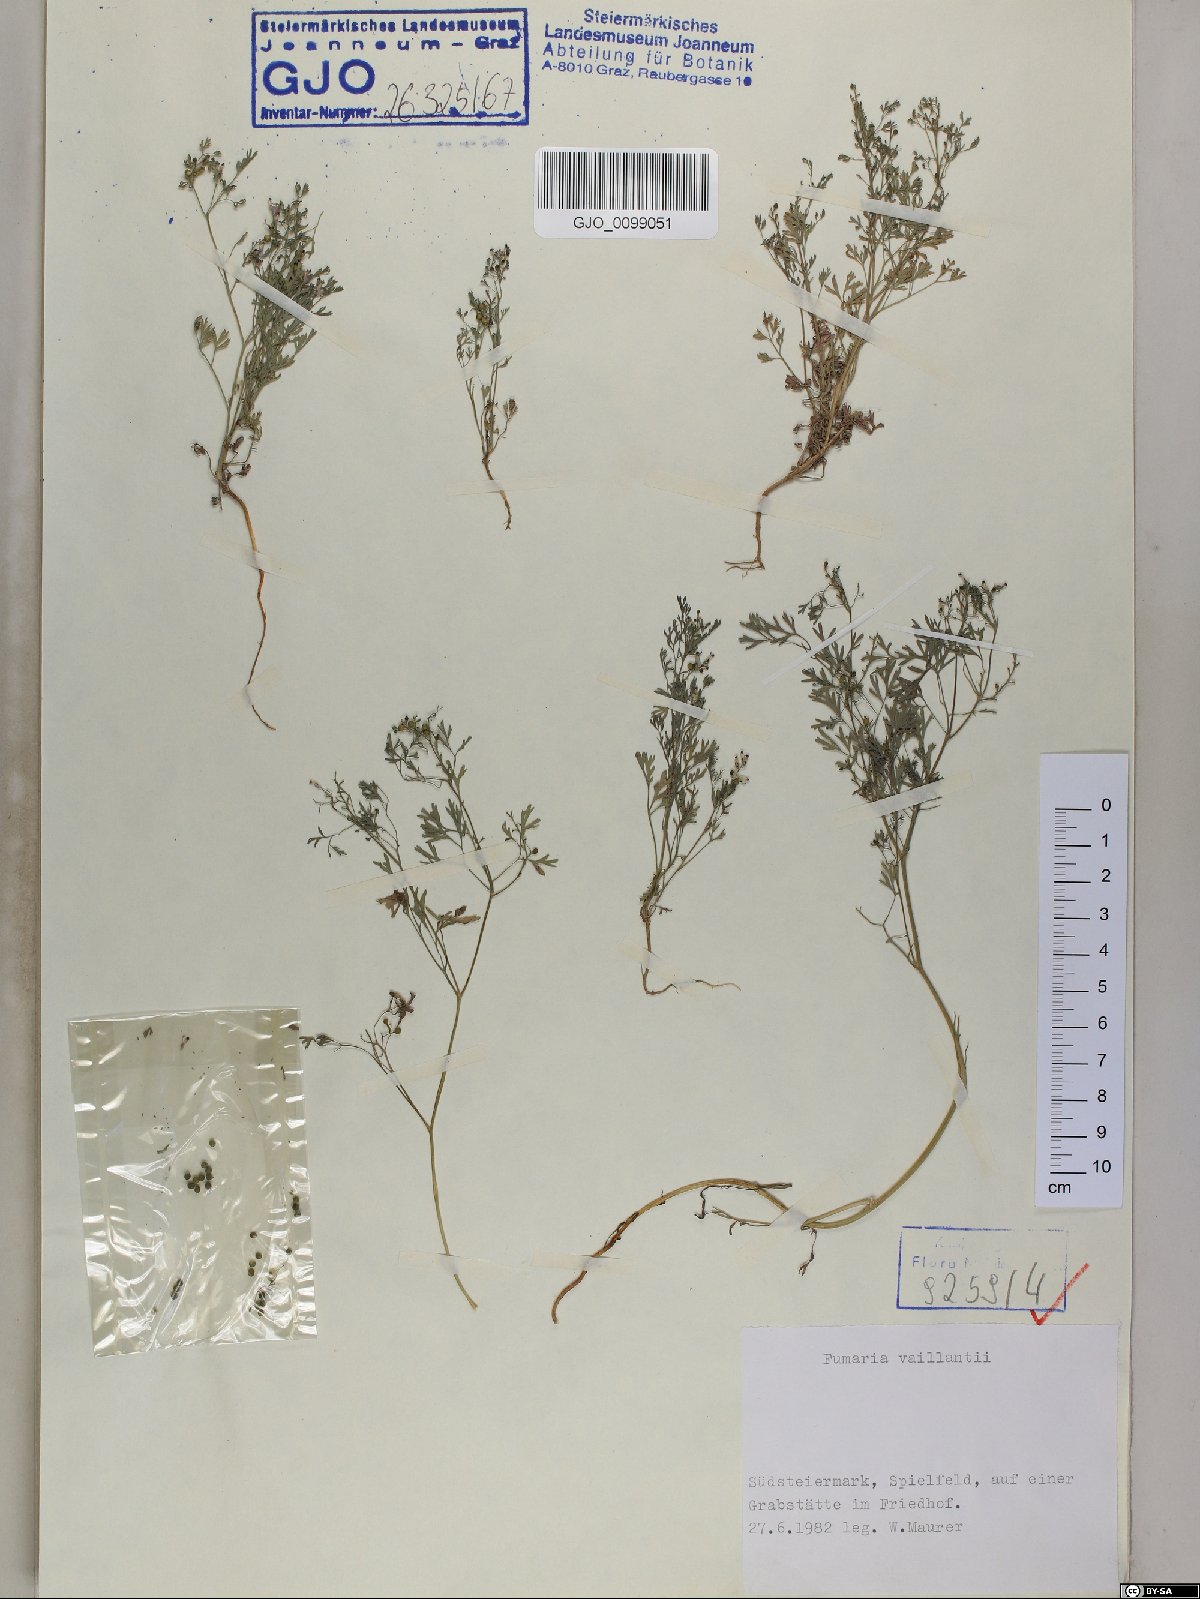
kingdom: Plantae
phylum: Tracheophyta
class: Magnoliopsida
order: Ranunculales
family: Papaveraceae
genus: Fumaria
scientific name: Fumaria vaillantii
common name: Few-flowered fumitory
